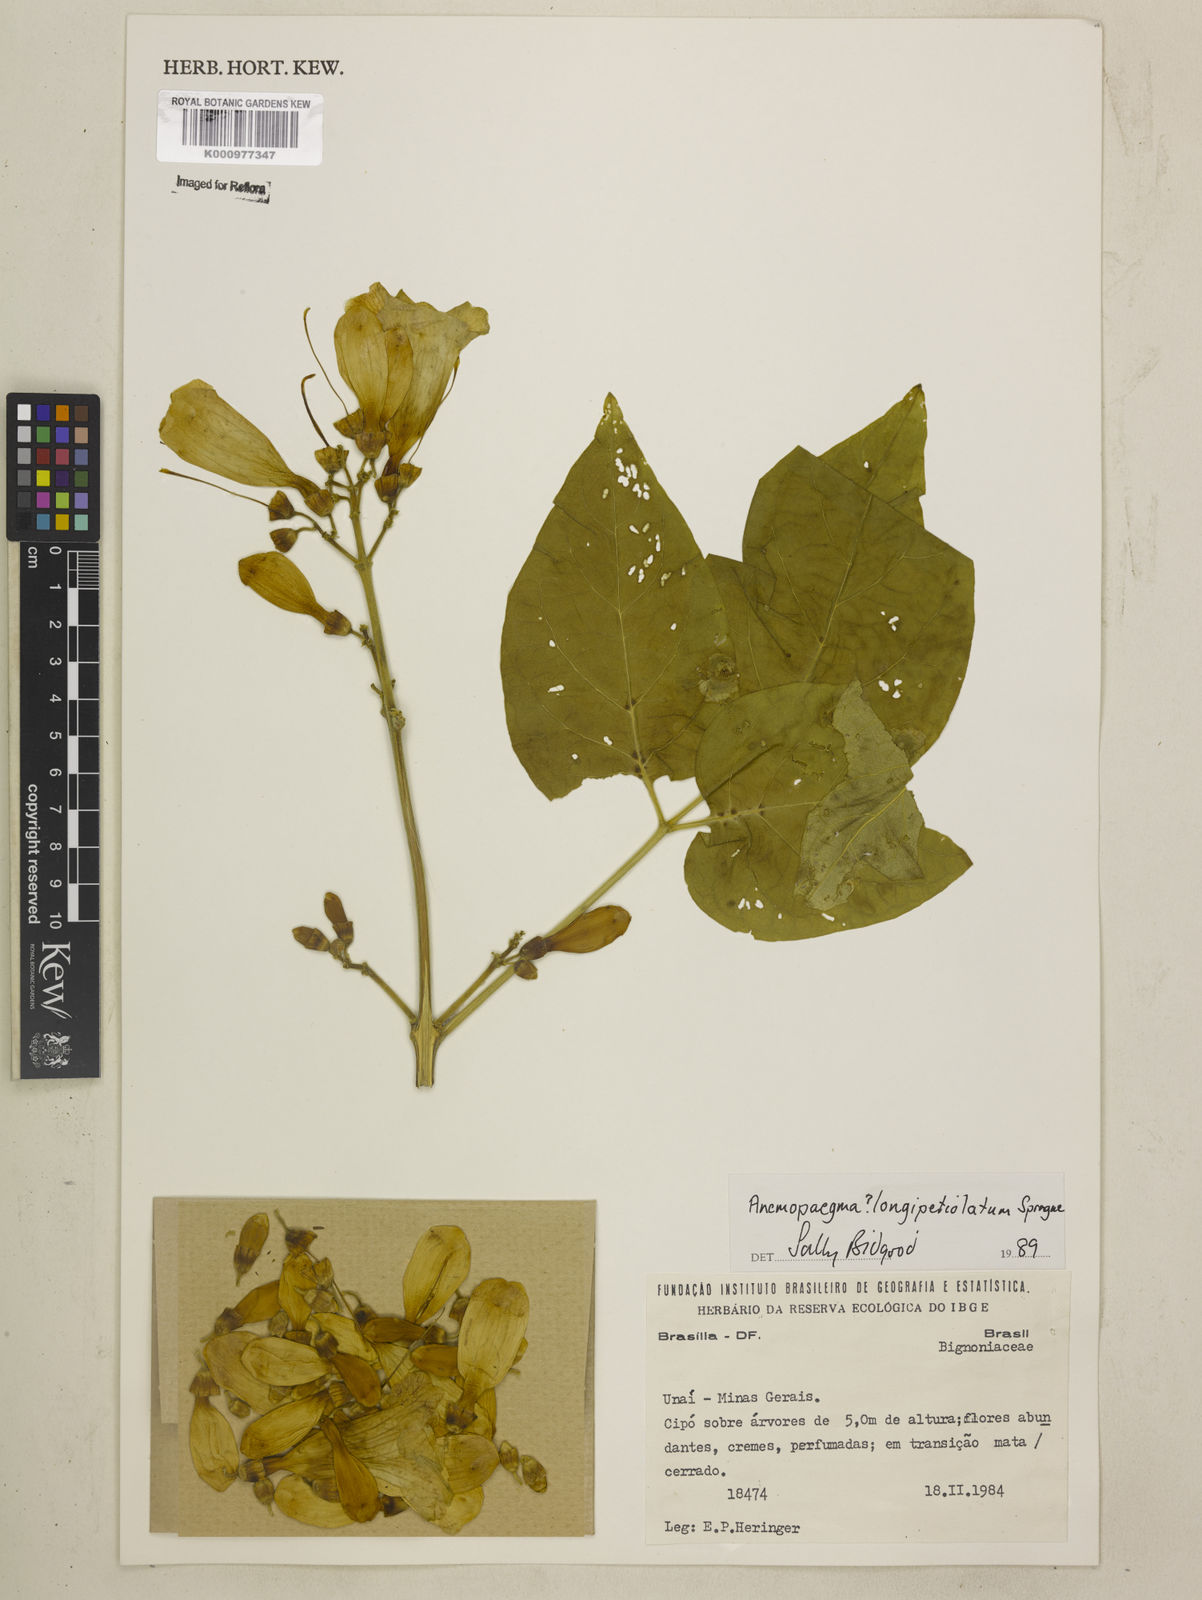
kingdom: Plantae
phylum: Tracheophyta
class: Magnoliopsida
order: Lamiales
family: Bignoniaceae
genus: Anemopaegma
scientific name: Anemopaegma longipetiolatum
